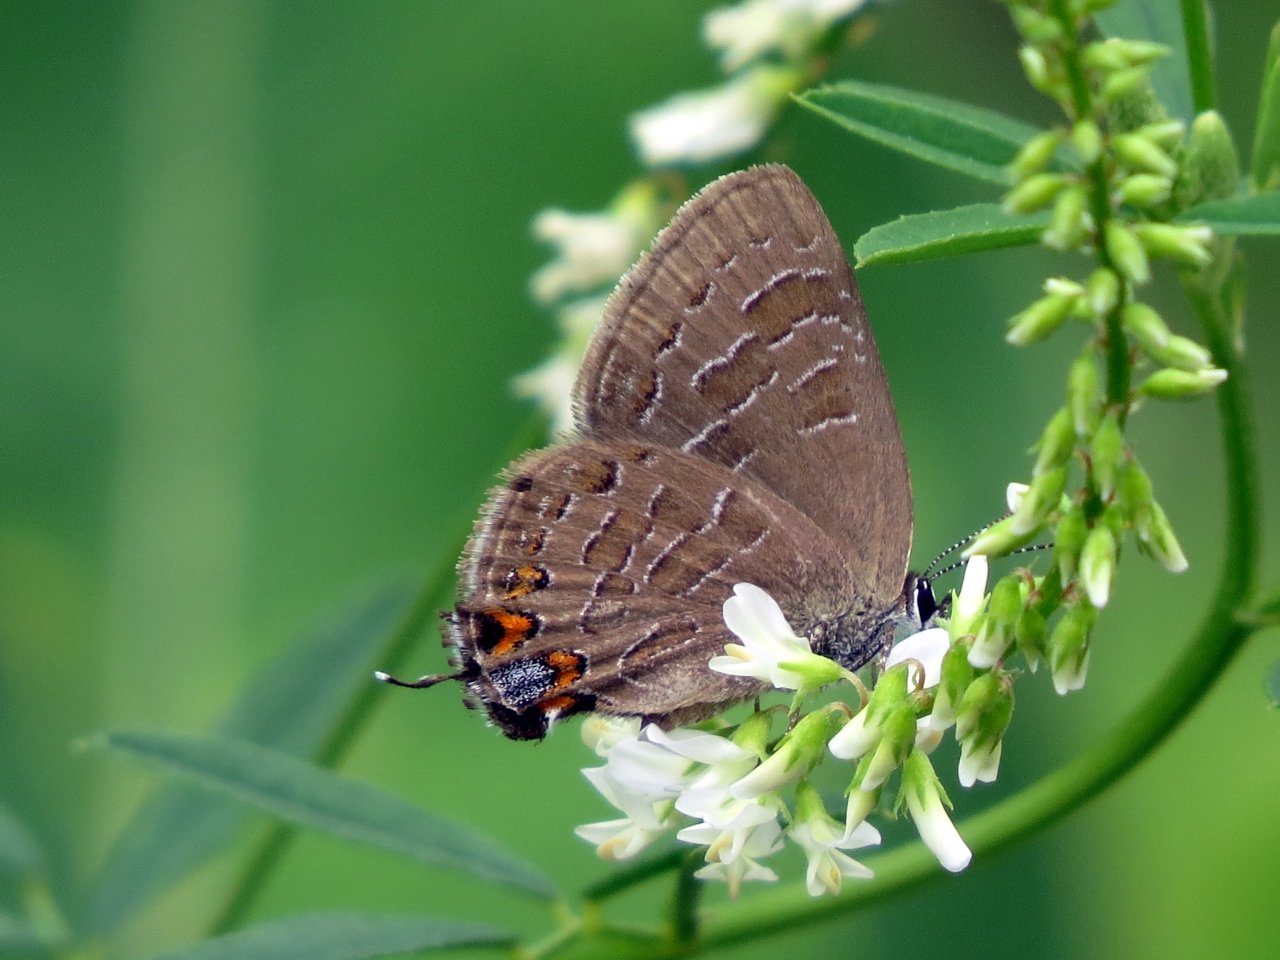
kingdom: Animalia
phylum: Arthropoda
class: Insecta
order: Lepidoptera
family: Lycaenidae
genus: Satyrium
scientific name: Satyrium liparops
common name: Striped Hairstreak
